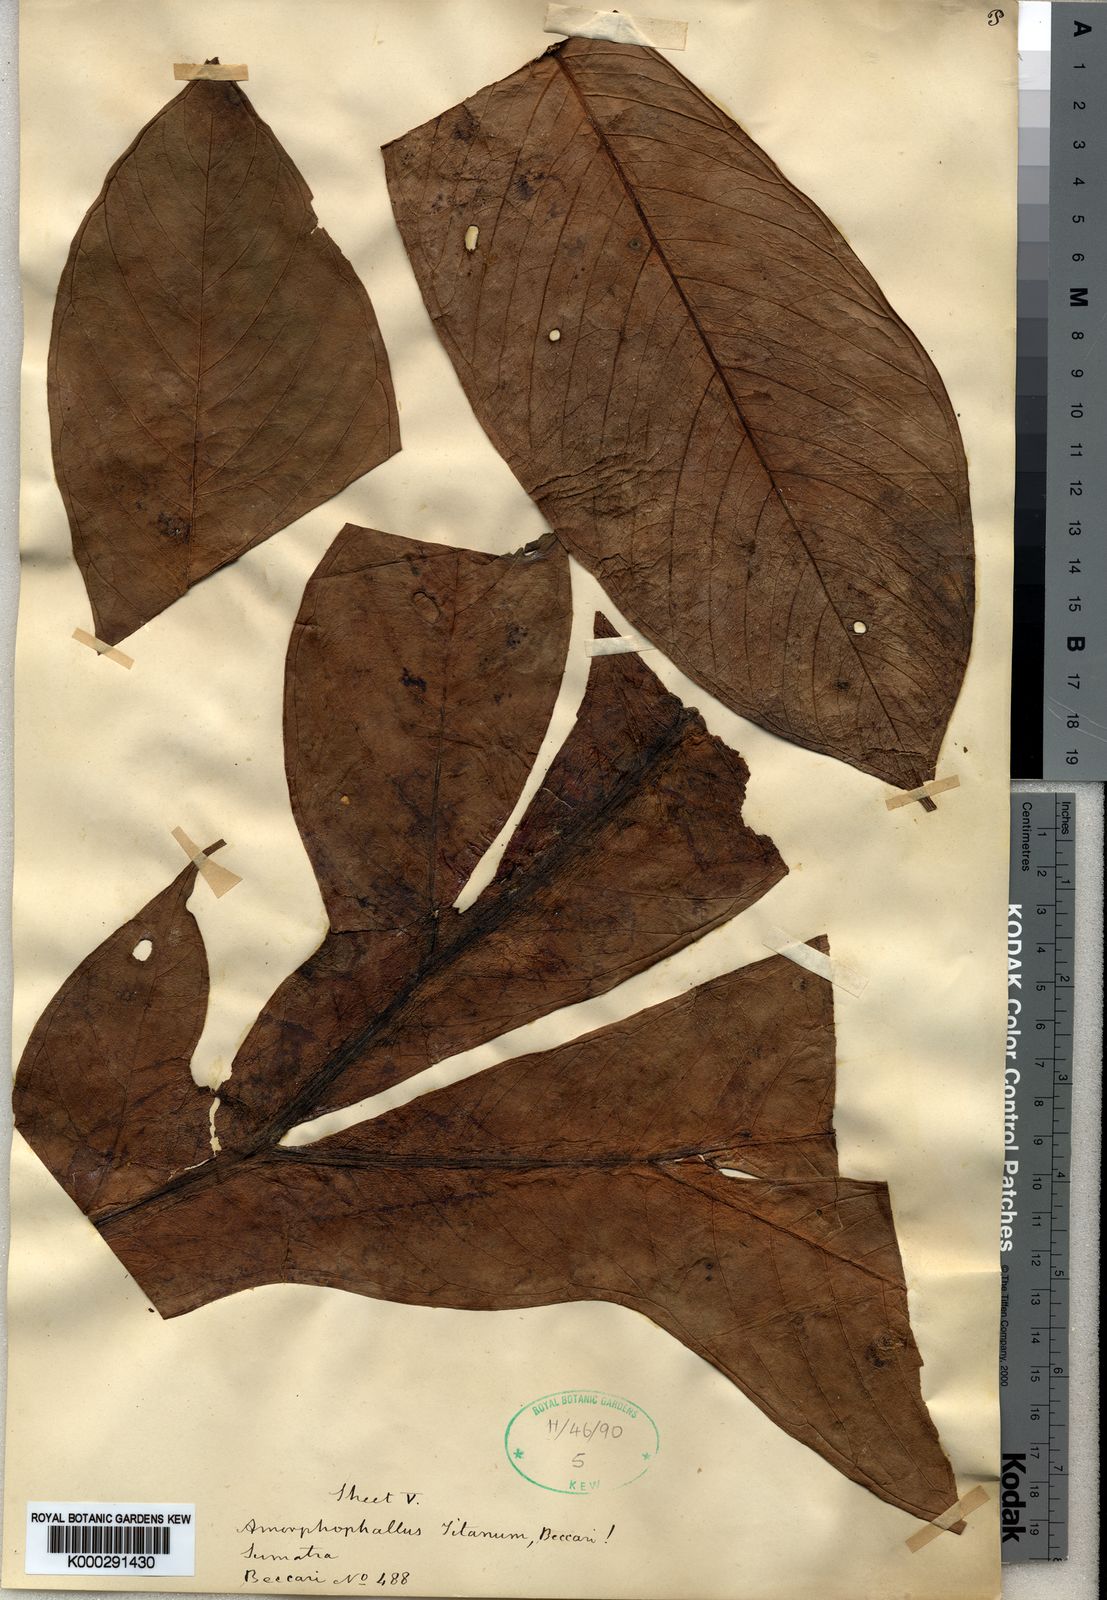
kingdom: Plantae
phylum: Tracheophyta
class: Liliopsida
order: Alismatales
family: Araceae
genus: Amorphophallus
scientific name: Amorphophallus titanum
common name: Titan arum
